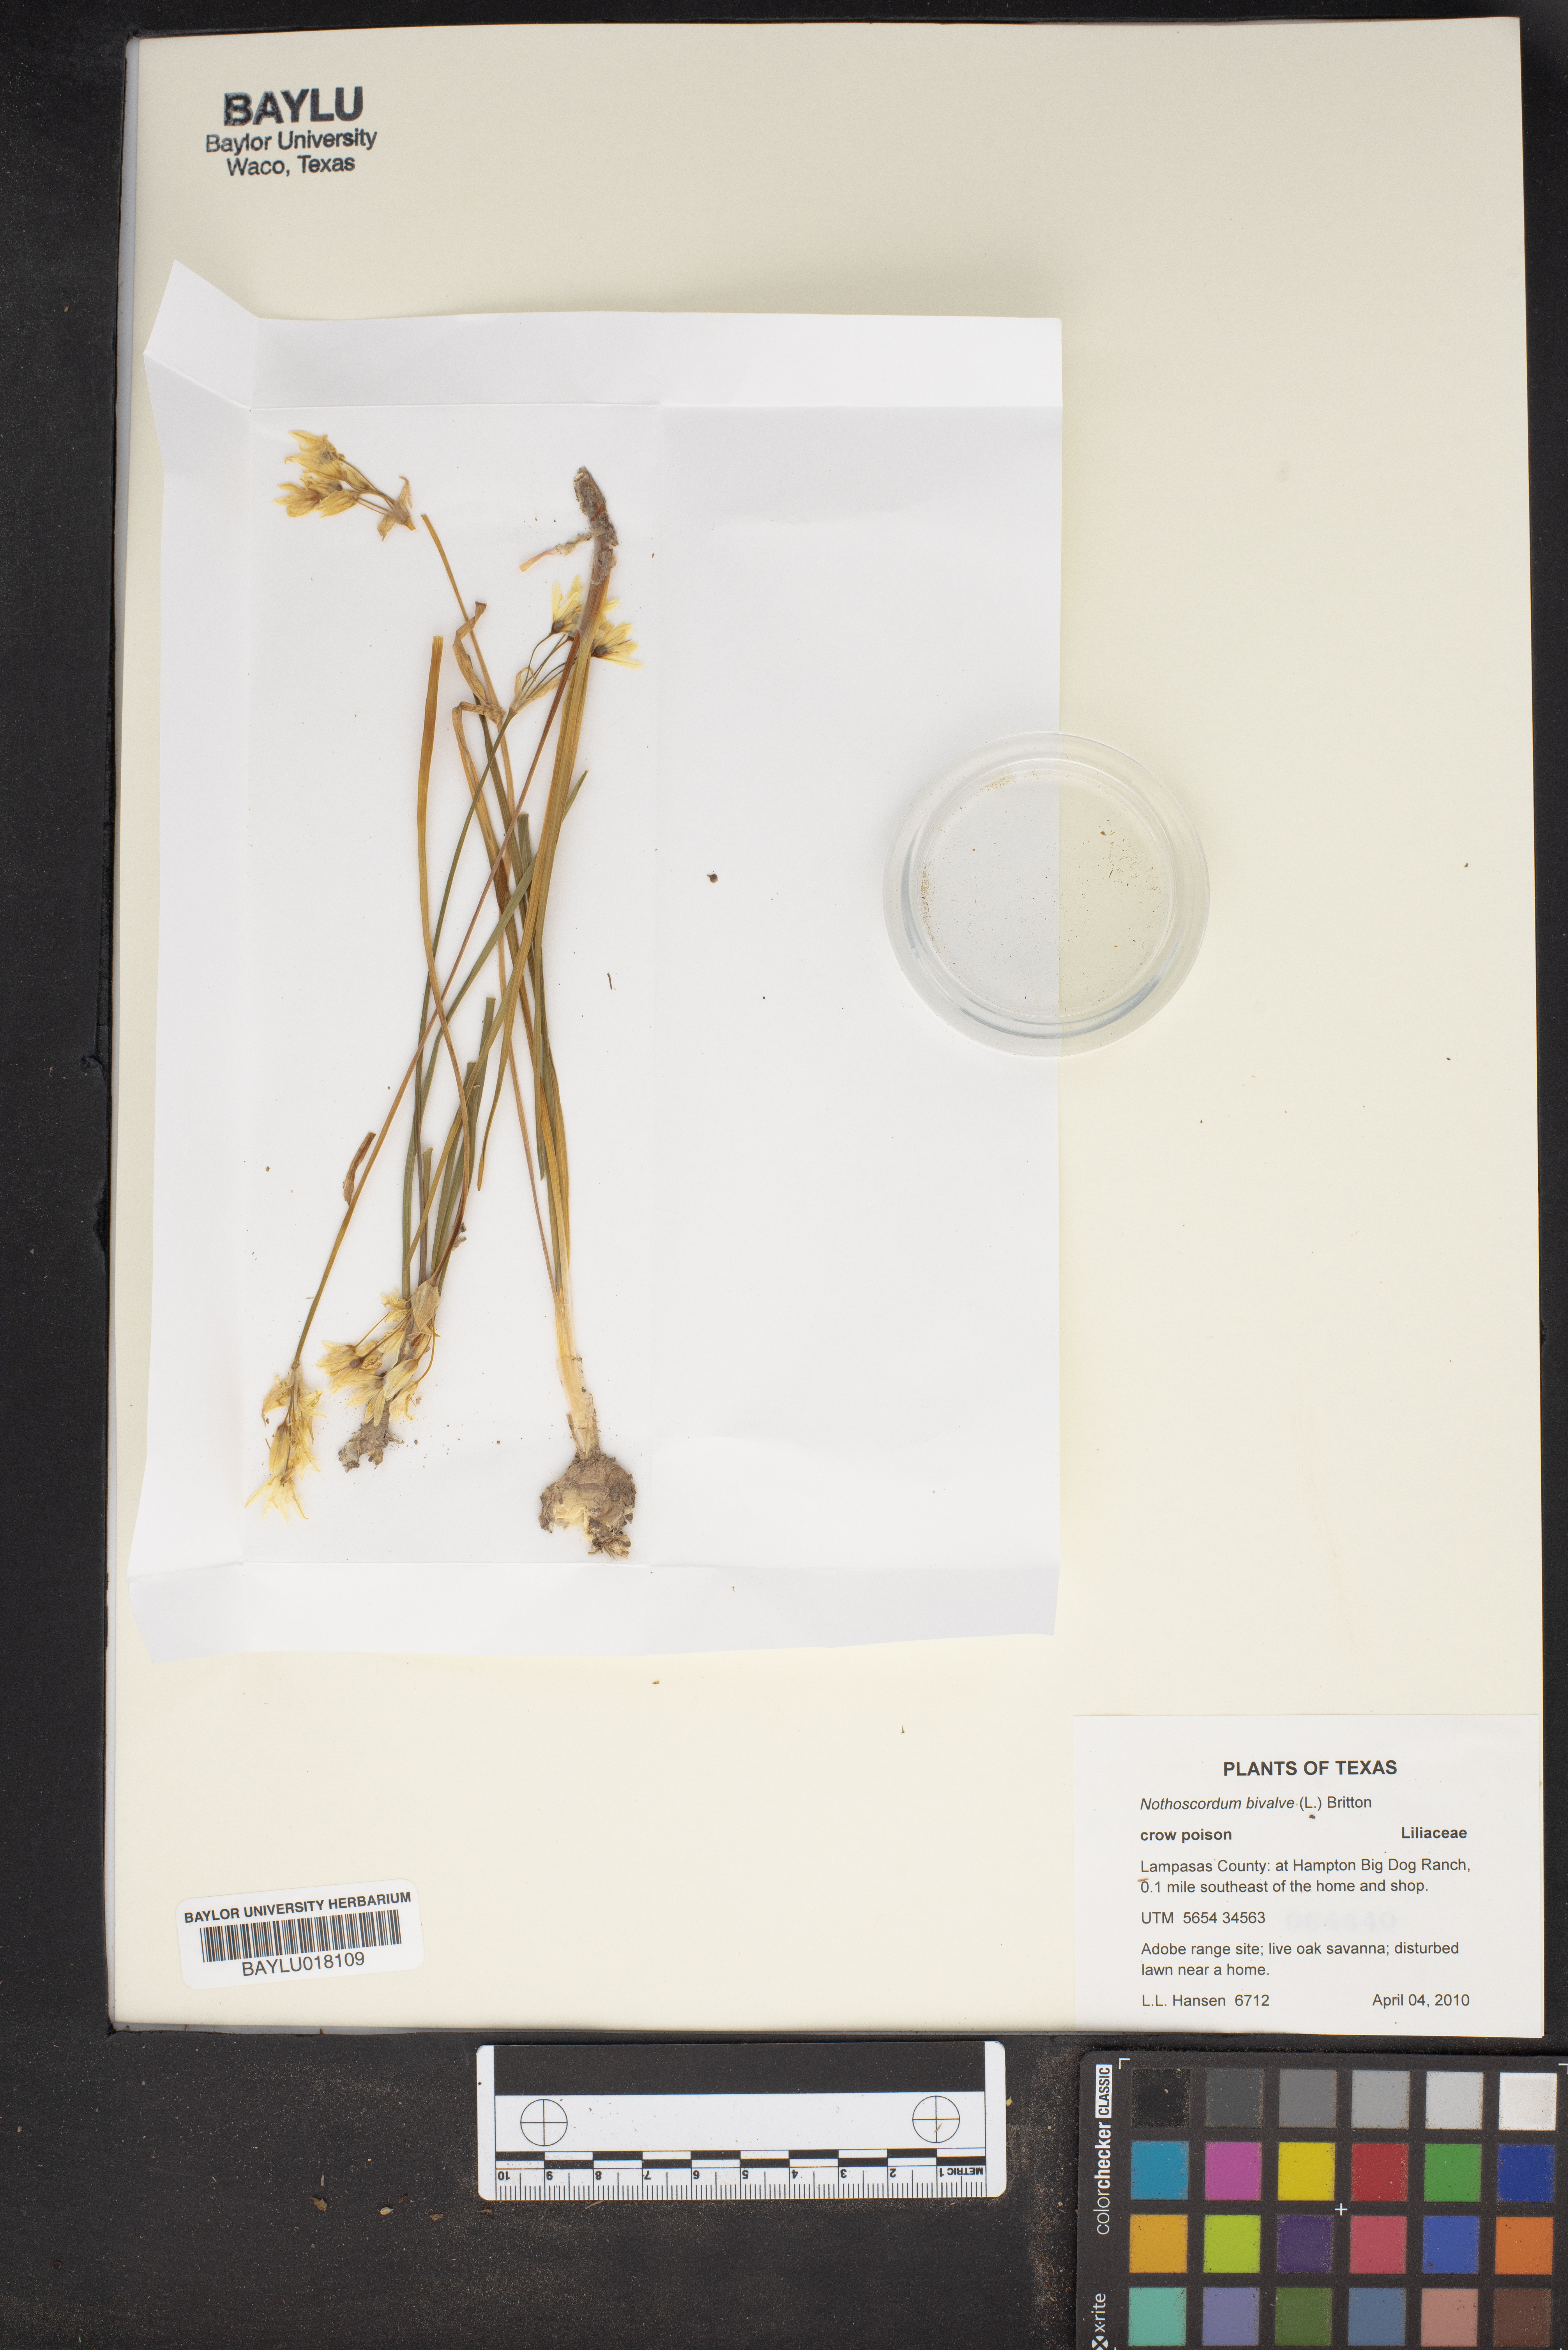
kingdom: Plantae
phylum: Tracheophyta
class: Liliopsida
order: Asparagales
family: Amaryllidaceae
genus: Nothoscordum
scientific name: Nothoscordum bivalve
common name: Crow-poison
